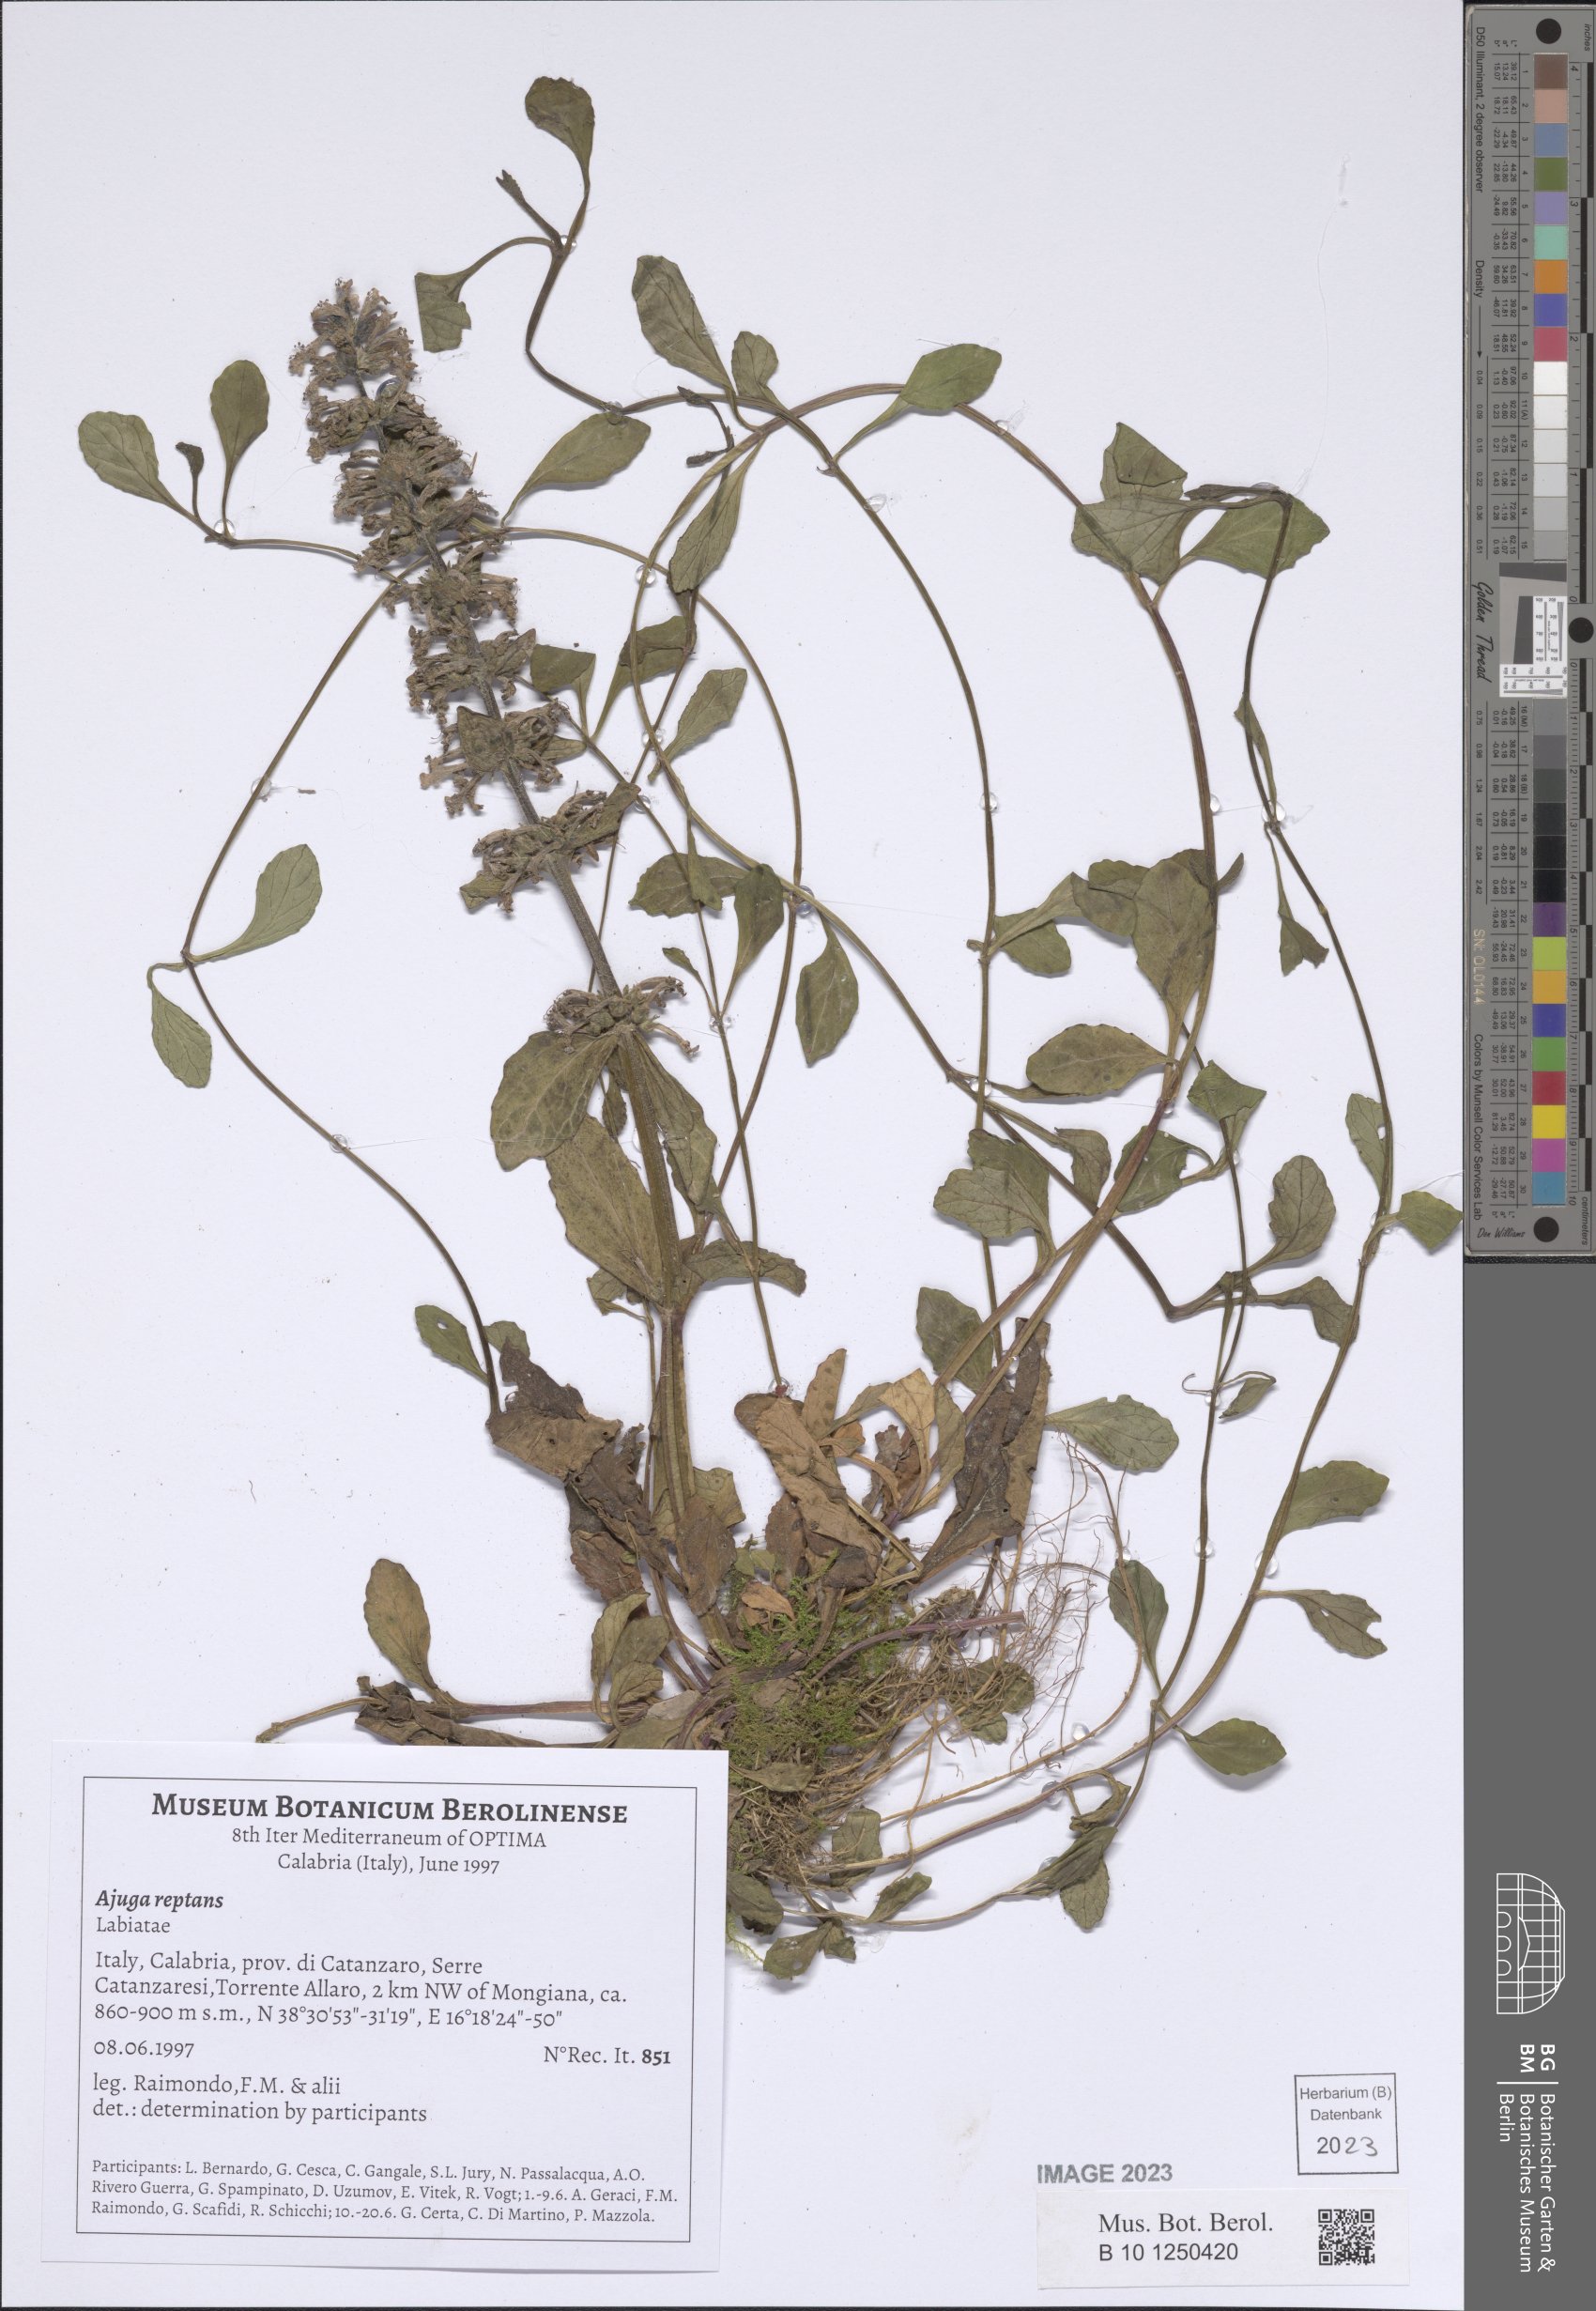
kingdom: Plantae
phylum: Tracheophyta
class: Magnoliopsida
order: Lamiales
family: Lamiaceae
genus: Ajuga
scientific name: Ajuga reptans
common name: Bugle
